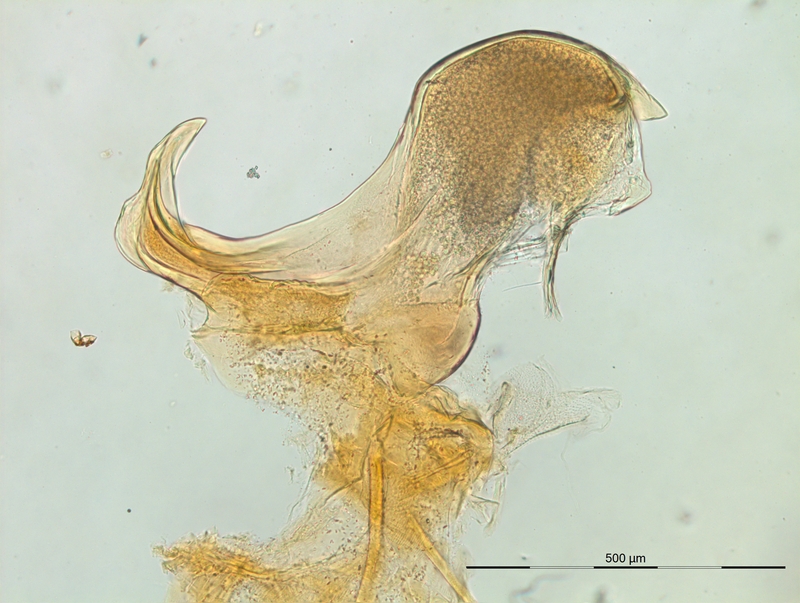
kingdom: Animalia
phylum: Arthropoda
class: Diplopoda
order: Chordeumatida
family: Craspedosomatidae
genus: Macheiriophoron
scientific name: Macheiriophoron verhoeffi
